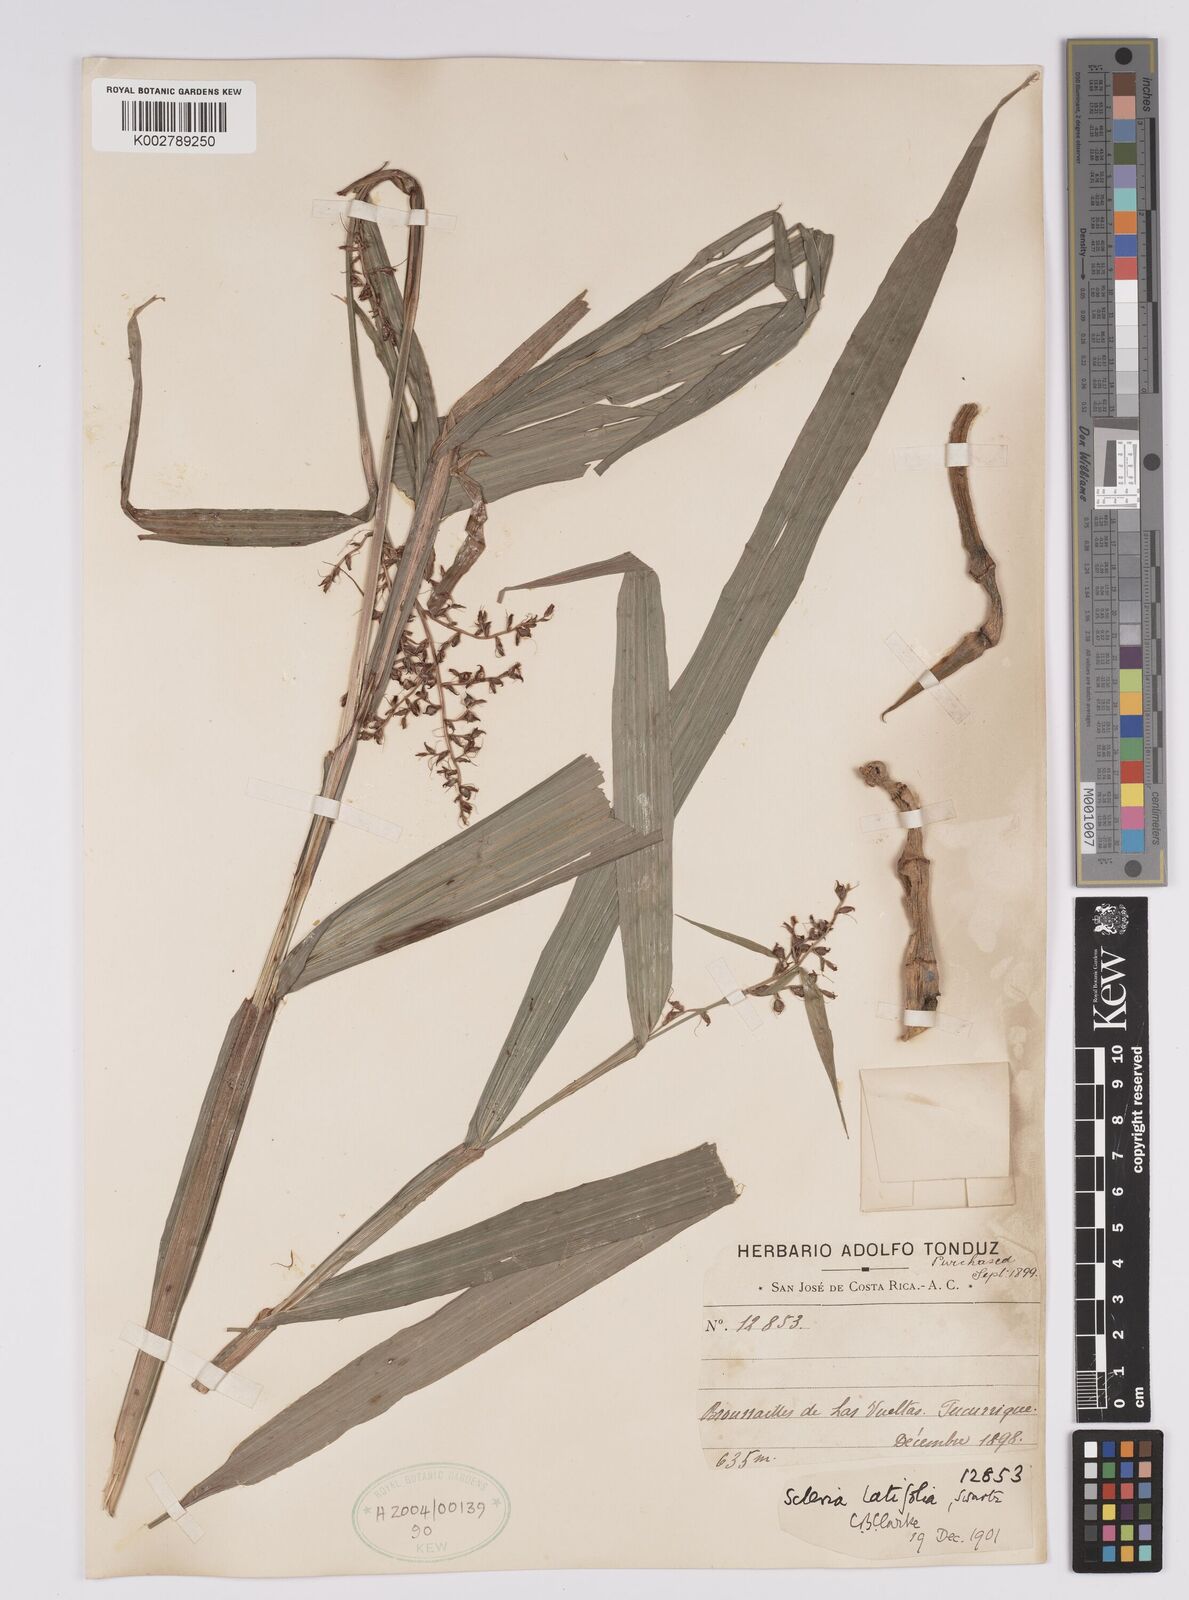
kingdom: Plantae
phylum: Tracheophyta
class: Liliopsida
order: Poales
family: Cyperaceae
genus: Scleria
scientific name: Scleria latifolia
